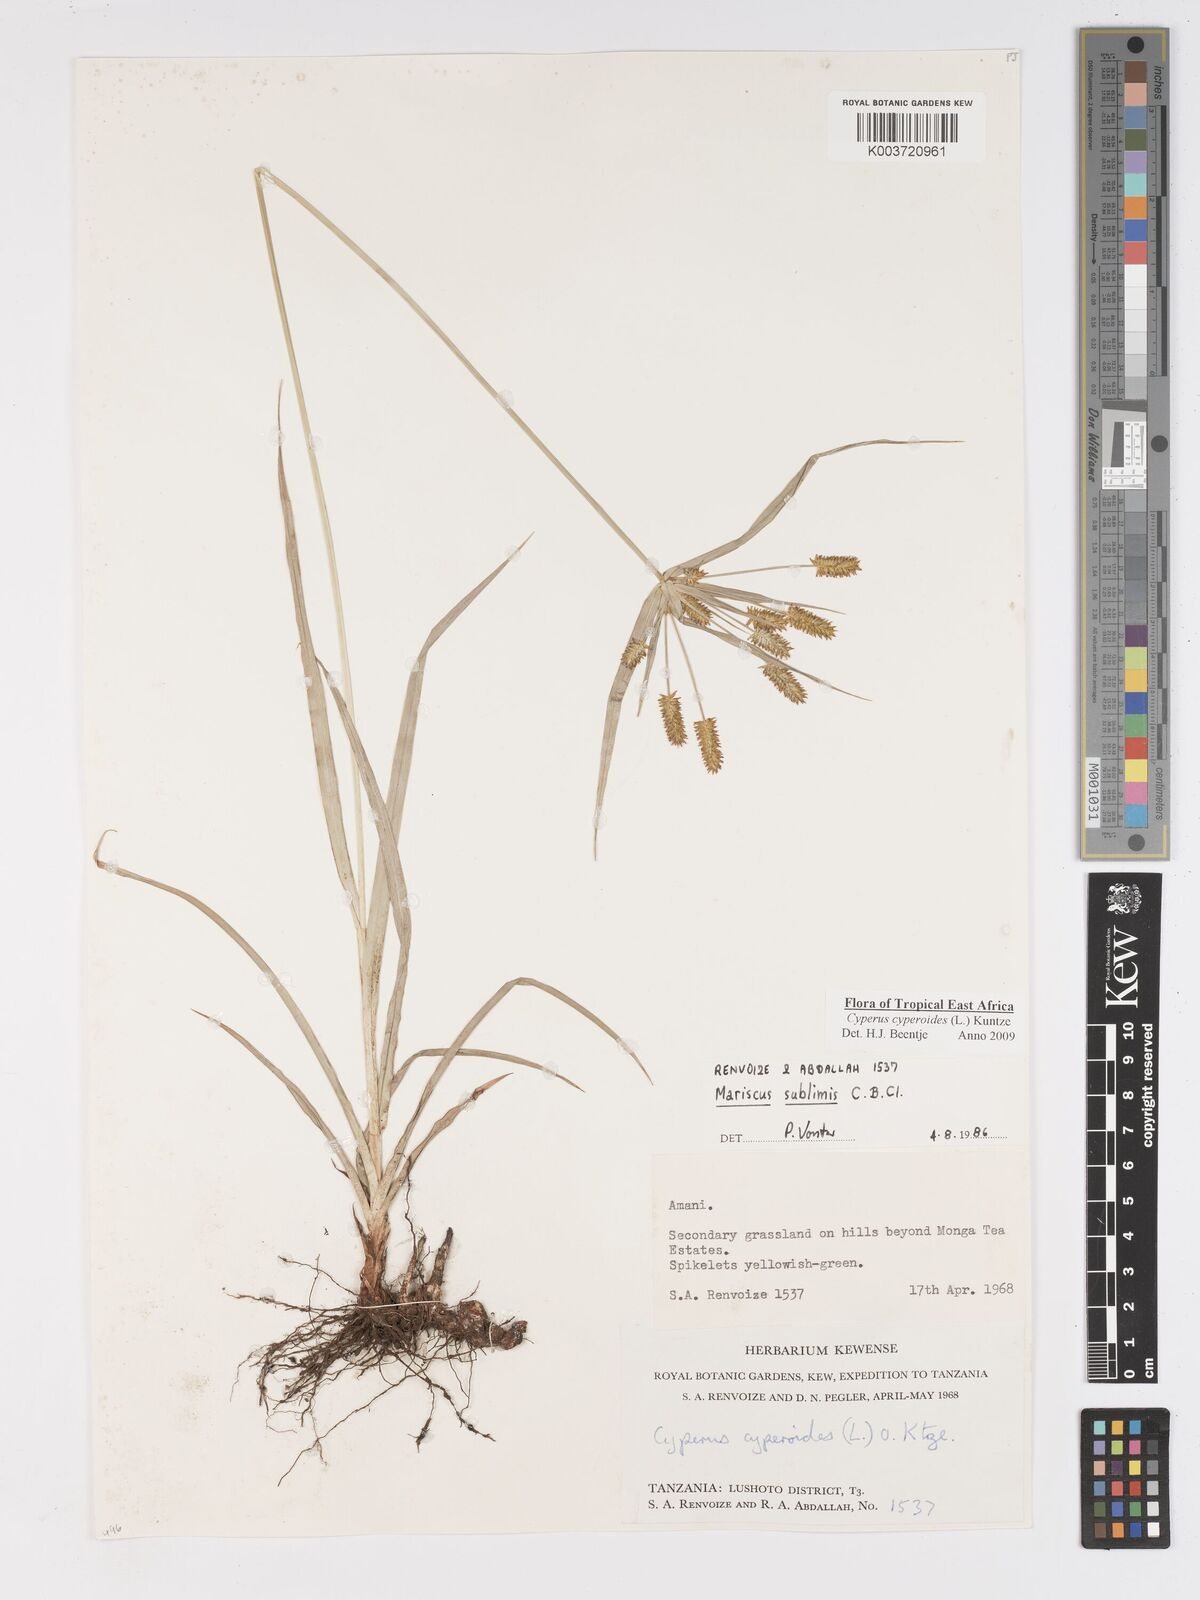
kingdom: Plantae
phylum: Tracheophyta
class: Liliopsida
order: Poales
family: Cyperaceae
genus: Cyperus
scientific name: Cyperus cyperoides
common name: Pacific island flat sedge
